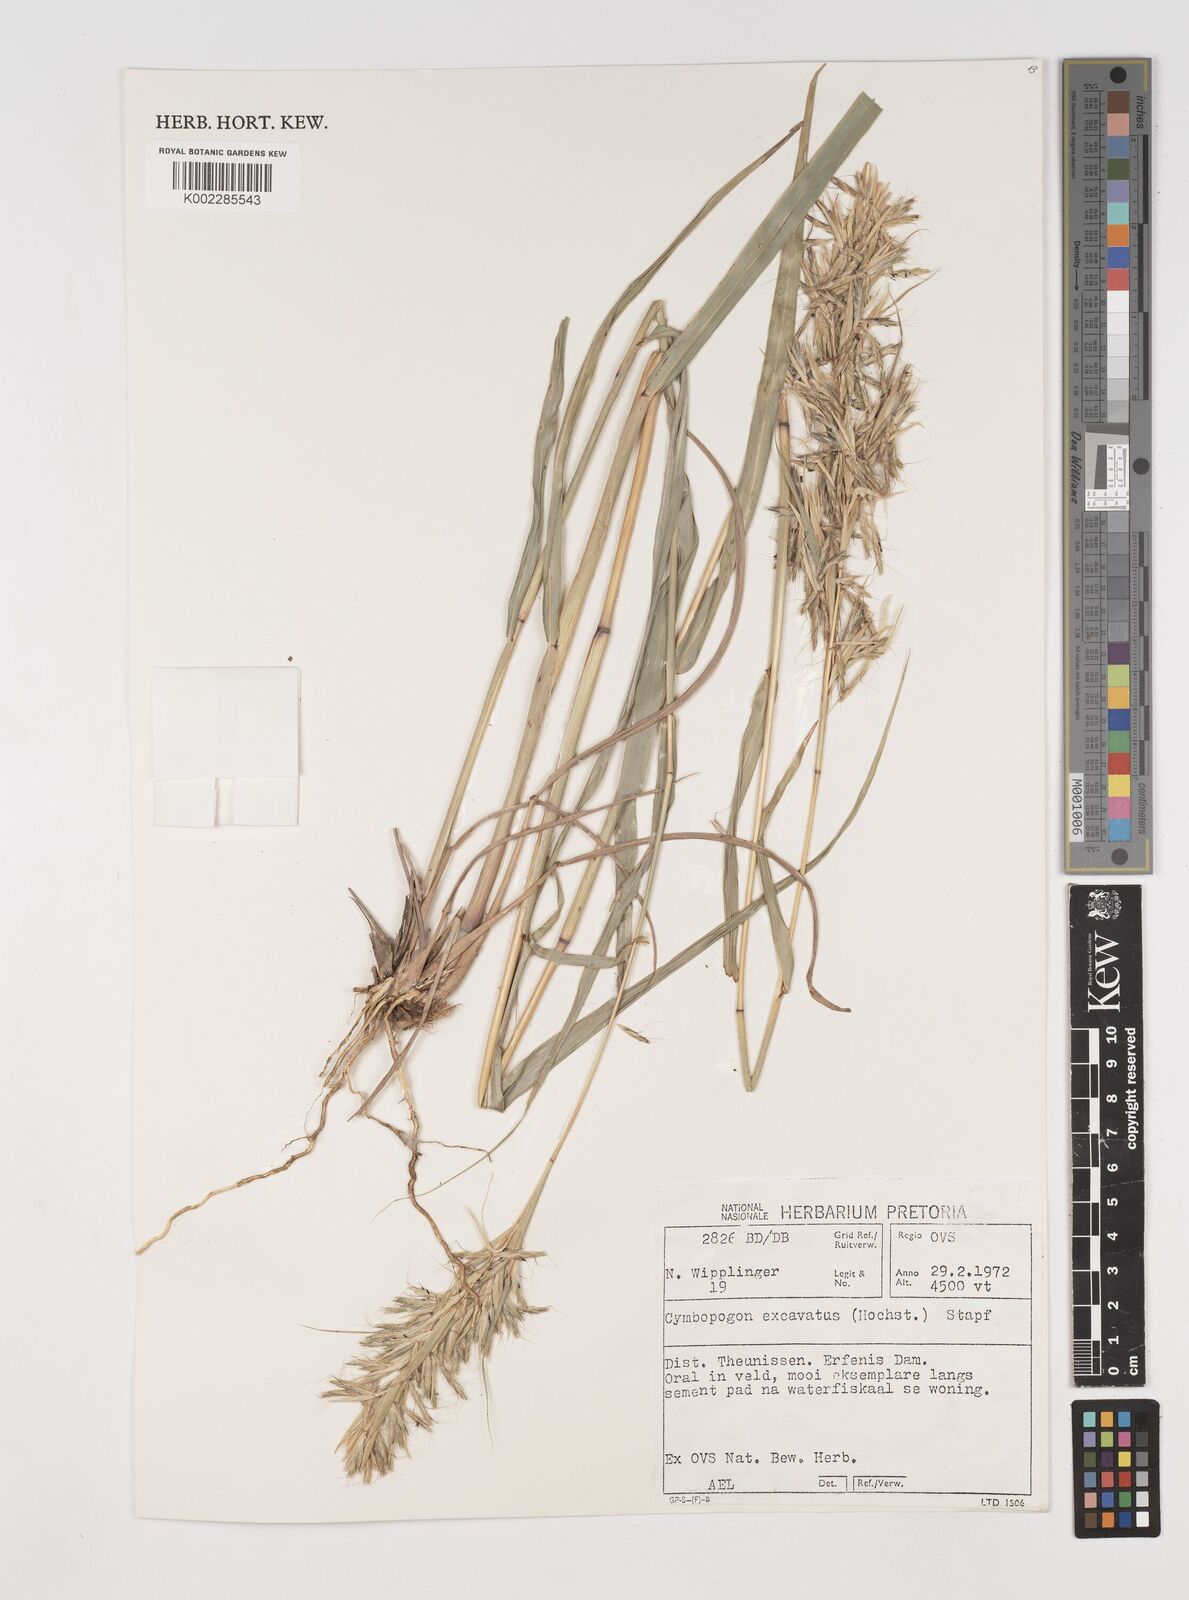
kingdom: Plantae
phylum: Tracheophyta
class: Liliopsida
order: Poales
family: Poaceae
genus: Cymbopogon
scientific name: Cymbopogon caesius
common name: Kachi grass
